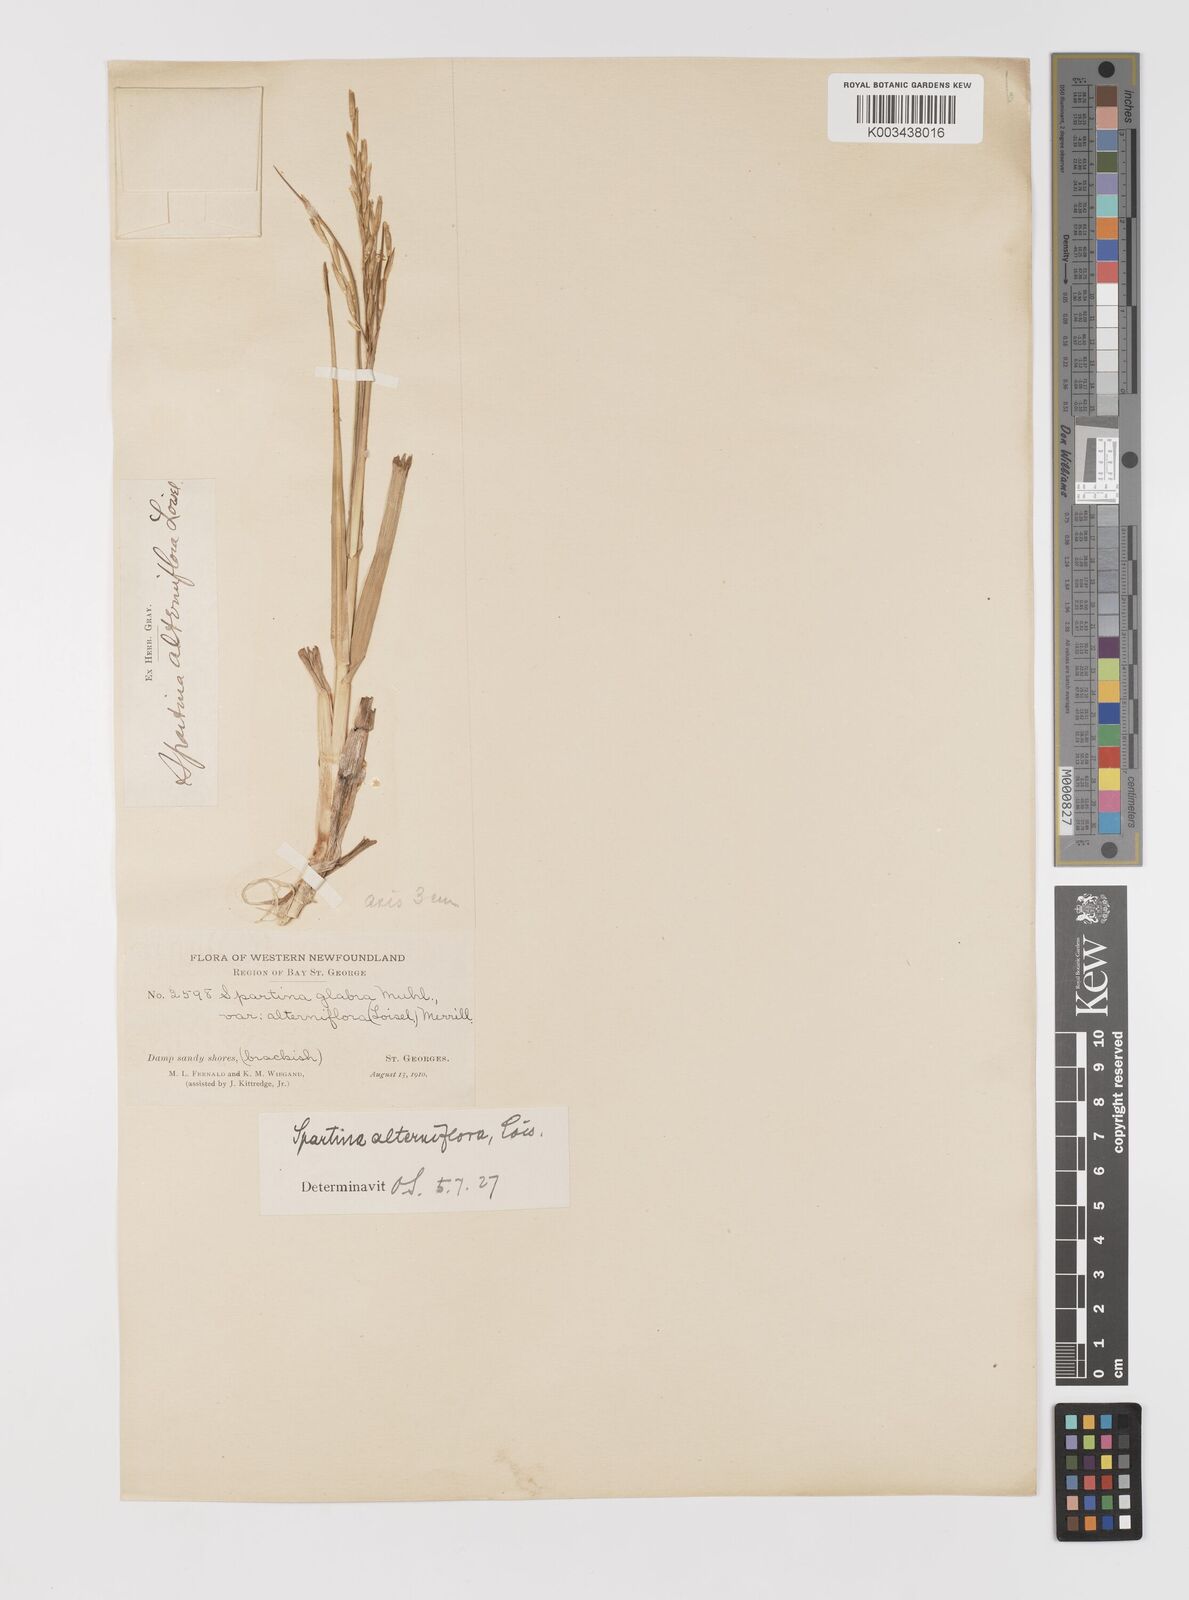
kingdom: Animalia
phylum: Mollusca
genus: Spartina
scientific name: Spartina
